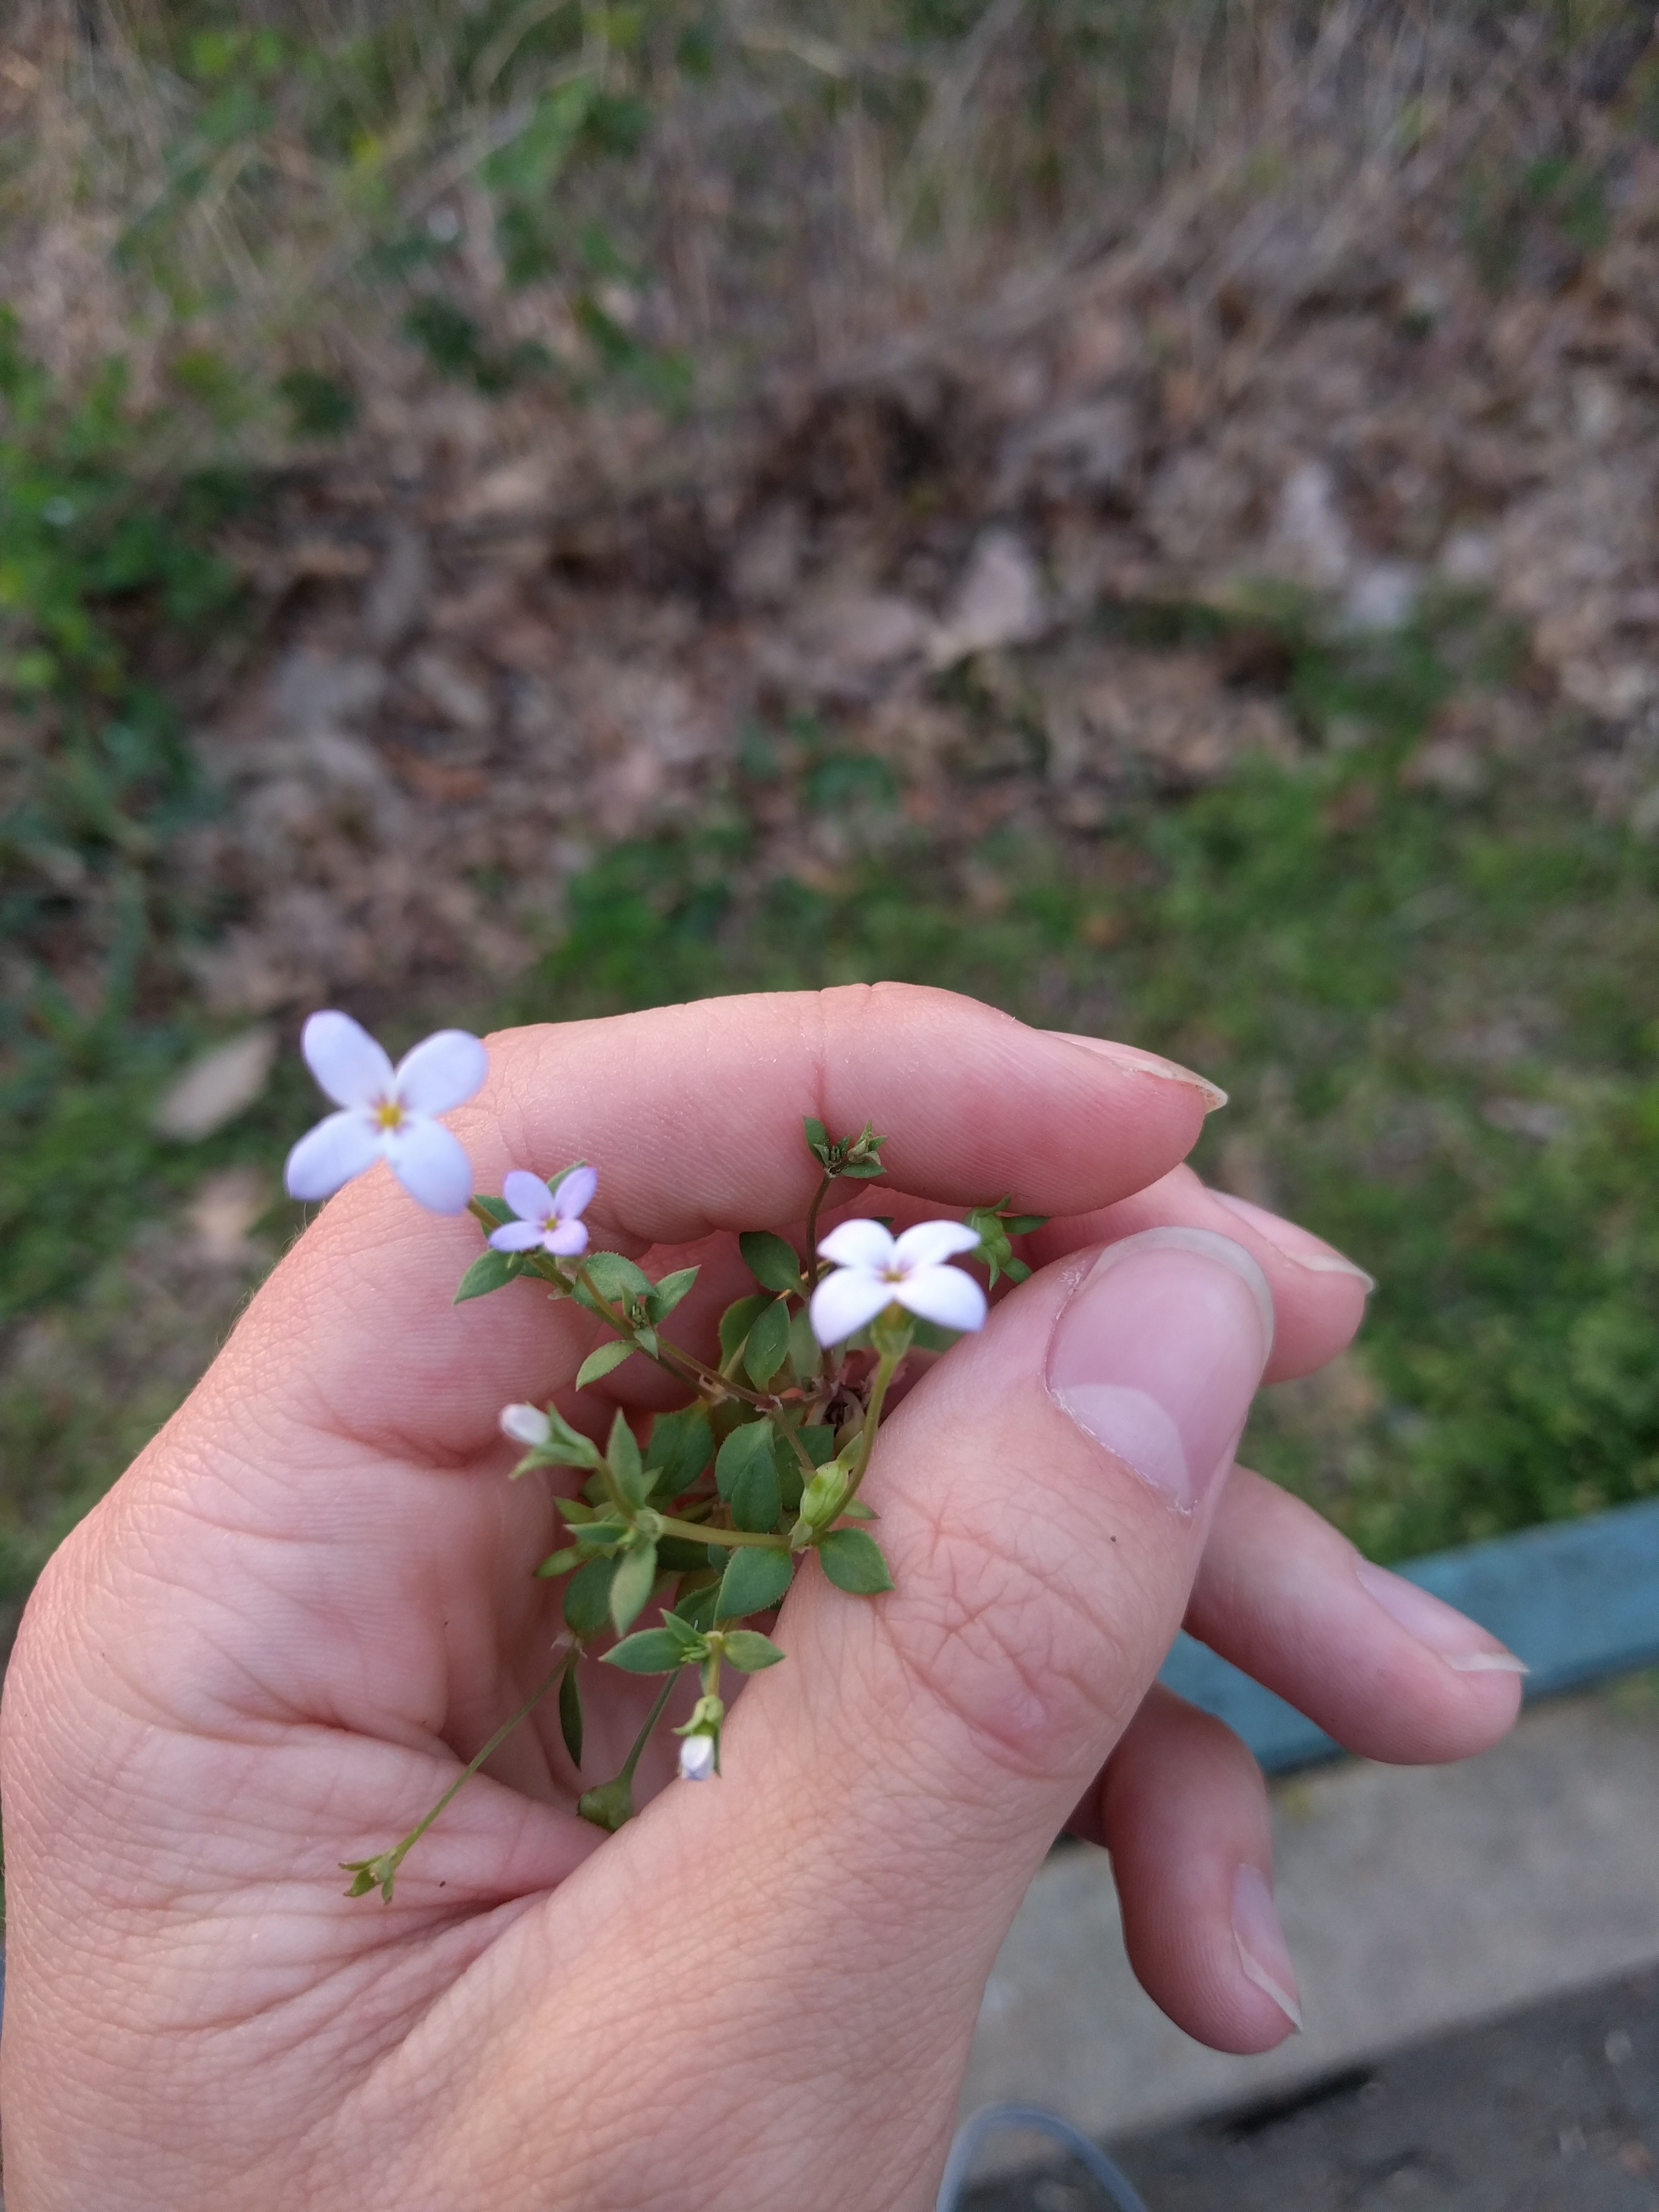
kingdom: Plantae
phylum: Tracheophyta
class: Magnoliopsida
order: Gentianales
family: Rubiaceae
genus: Houstonia
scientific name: Houstonia caerulea
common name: Bluets
